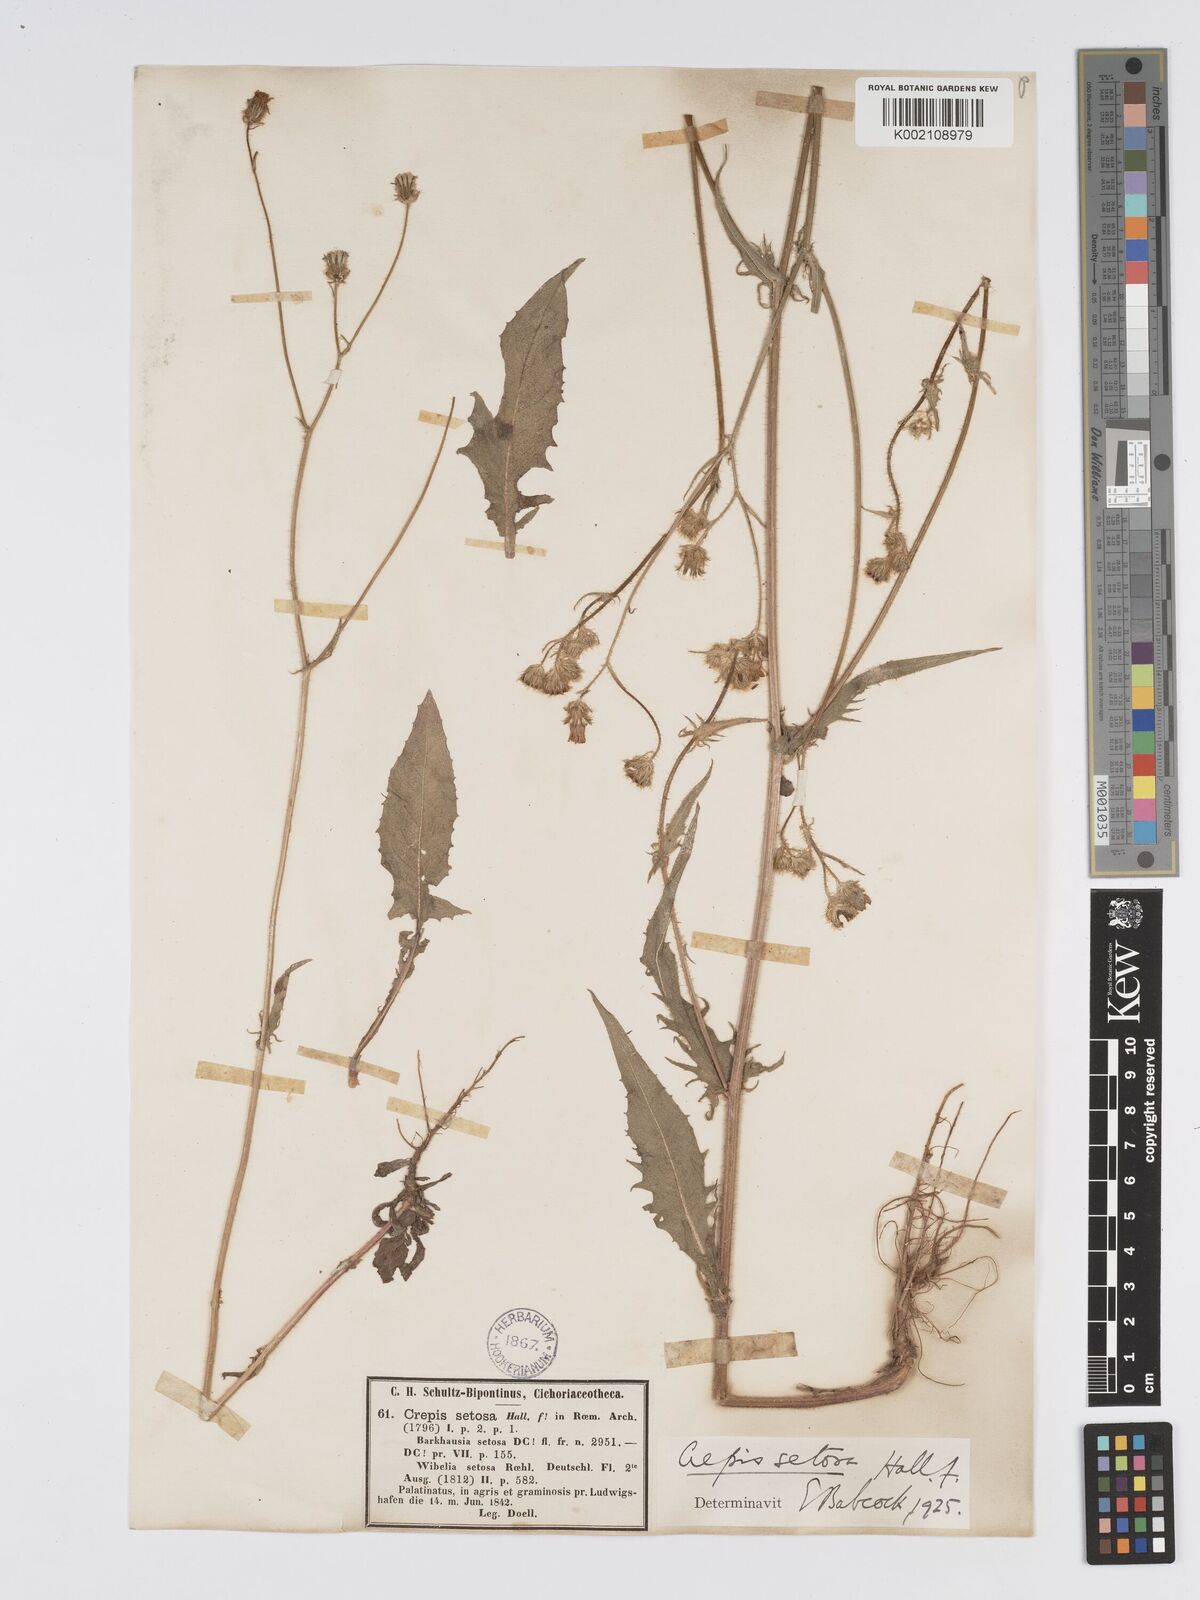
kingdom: Plantae
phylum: Tracheophyta
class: Magnoliopsida
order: Asterales
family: Asteraceae
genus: Crepis
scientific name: Crepis setosa
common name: Bristly hawk's-beard
